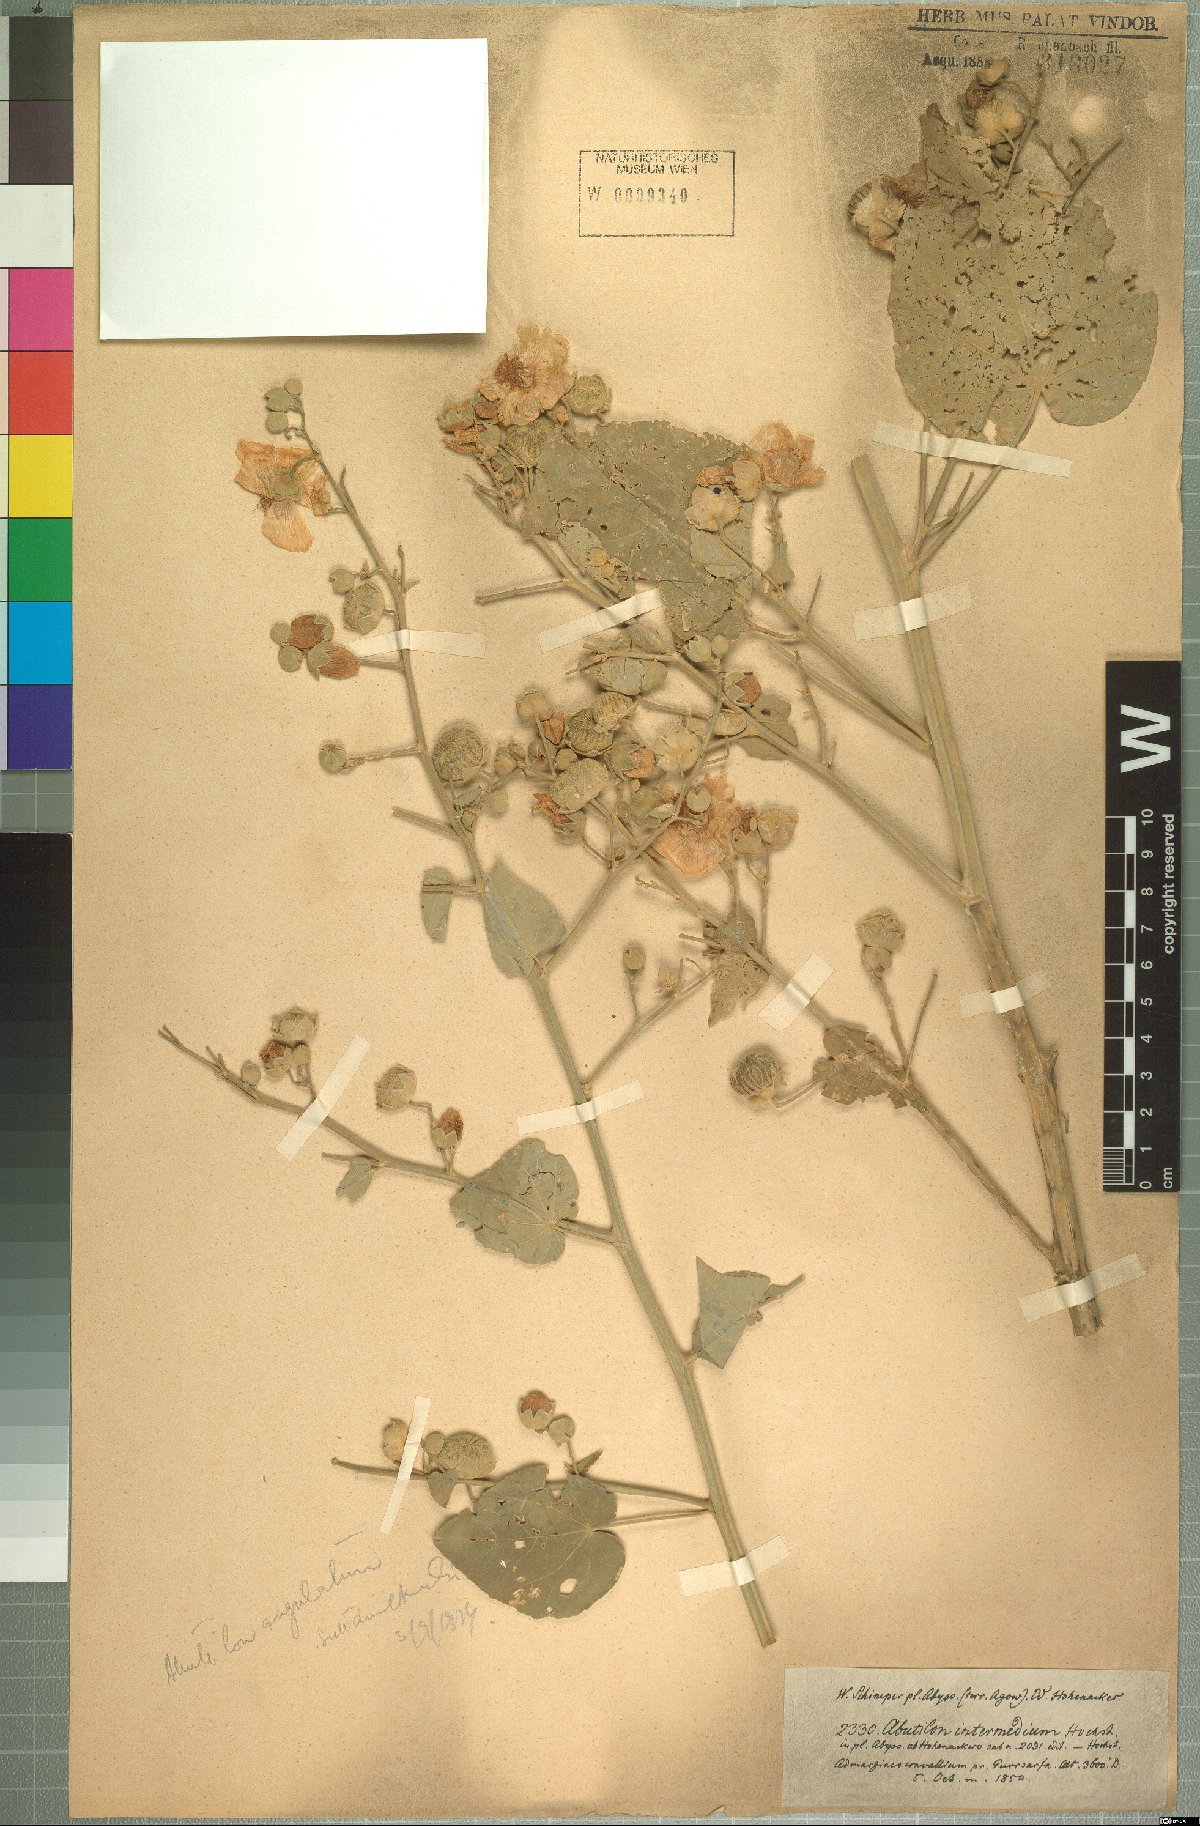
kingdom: Plantae
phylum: Tracheophyta
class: Magnoliopsida
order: Malvales
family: Malvaceae
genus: Abutilon
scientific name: Abutilon angulatum
